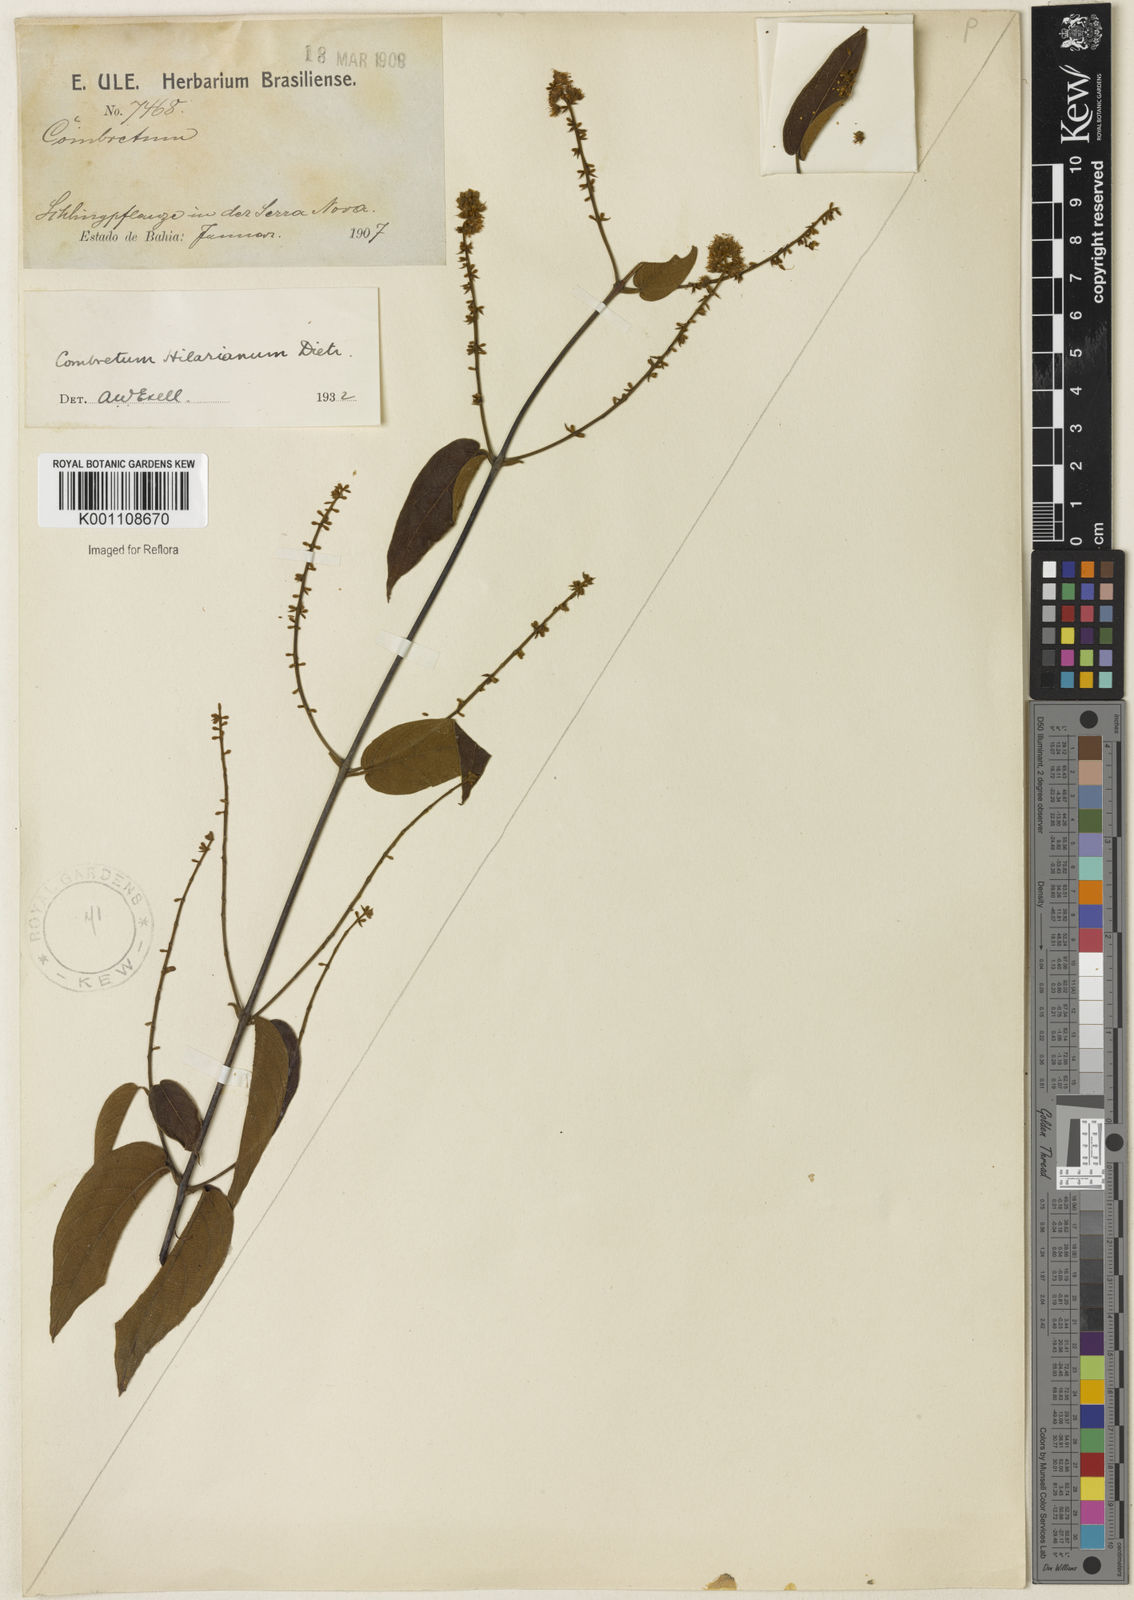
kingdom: Plantae
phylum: Tracheophyta
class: Magnoliopsida
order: Myrtales
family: Combretaceae
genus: Combretum
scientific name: Combretum hilarianum
